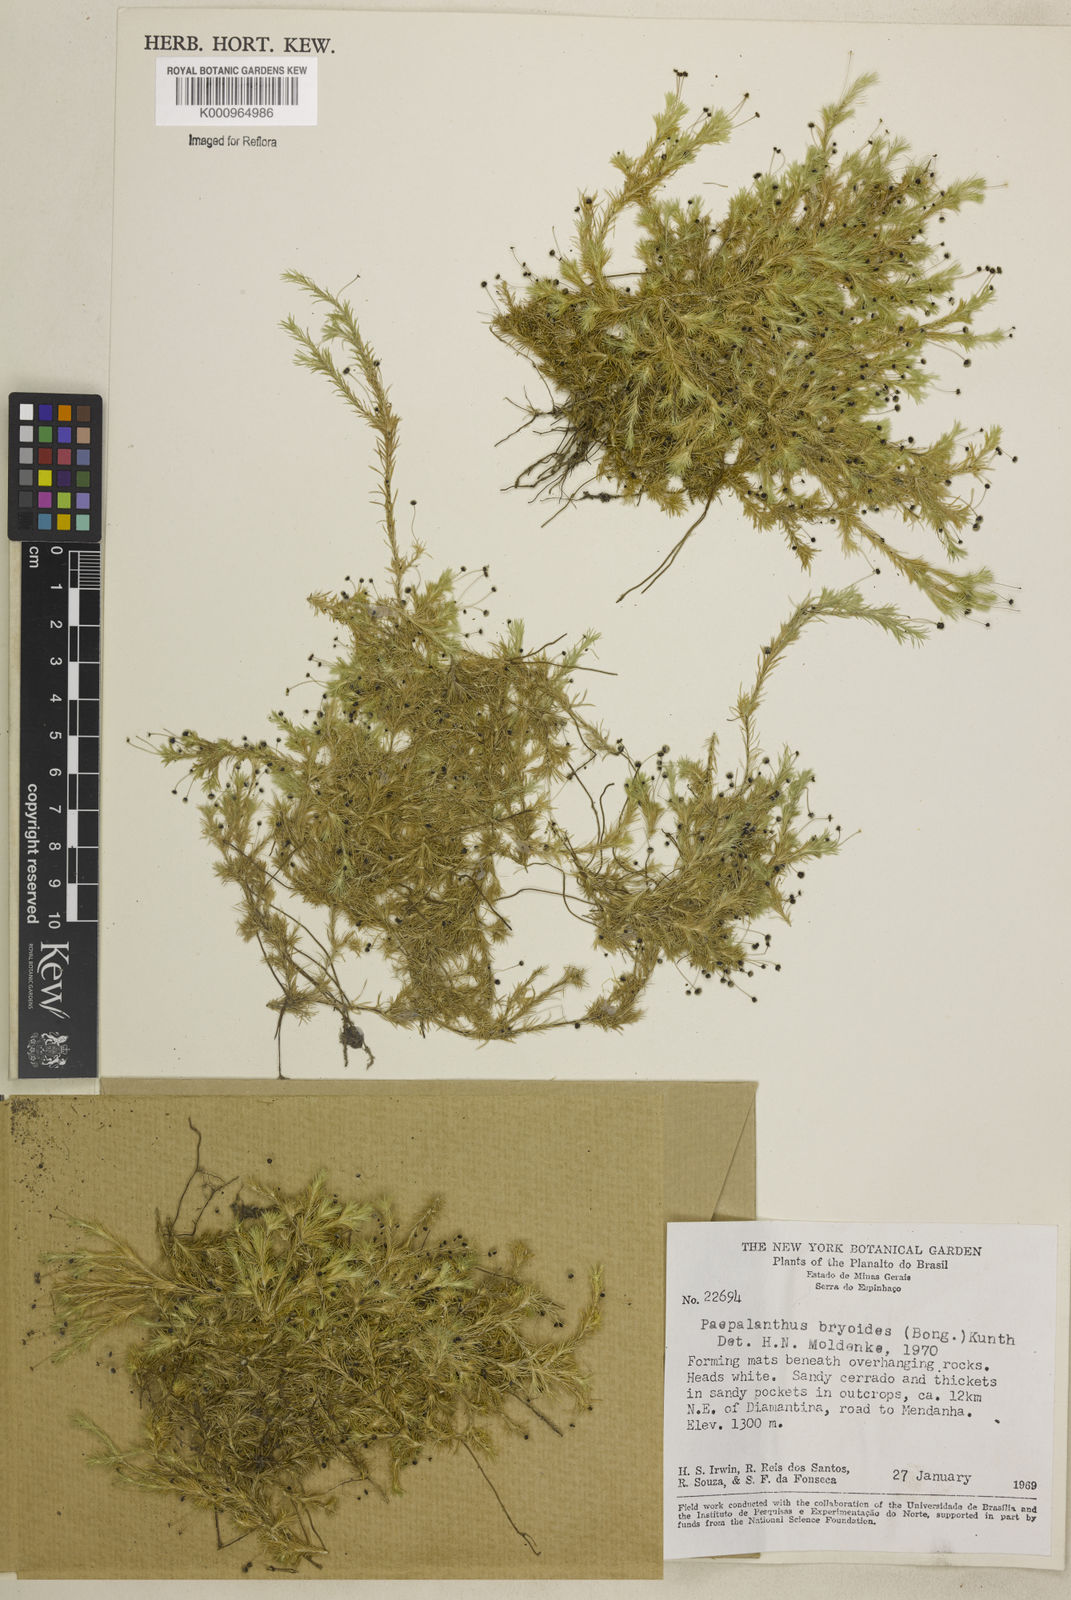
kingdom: Plantae
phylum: Tracheophyta
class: Liliopsida
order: Poales
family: Eriocaulaceae
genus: Paepalanthus
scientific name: Paepalanthus bryoides
